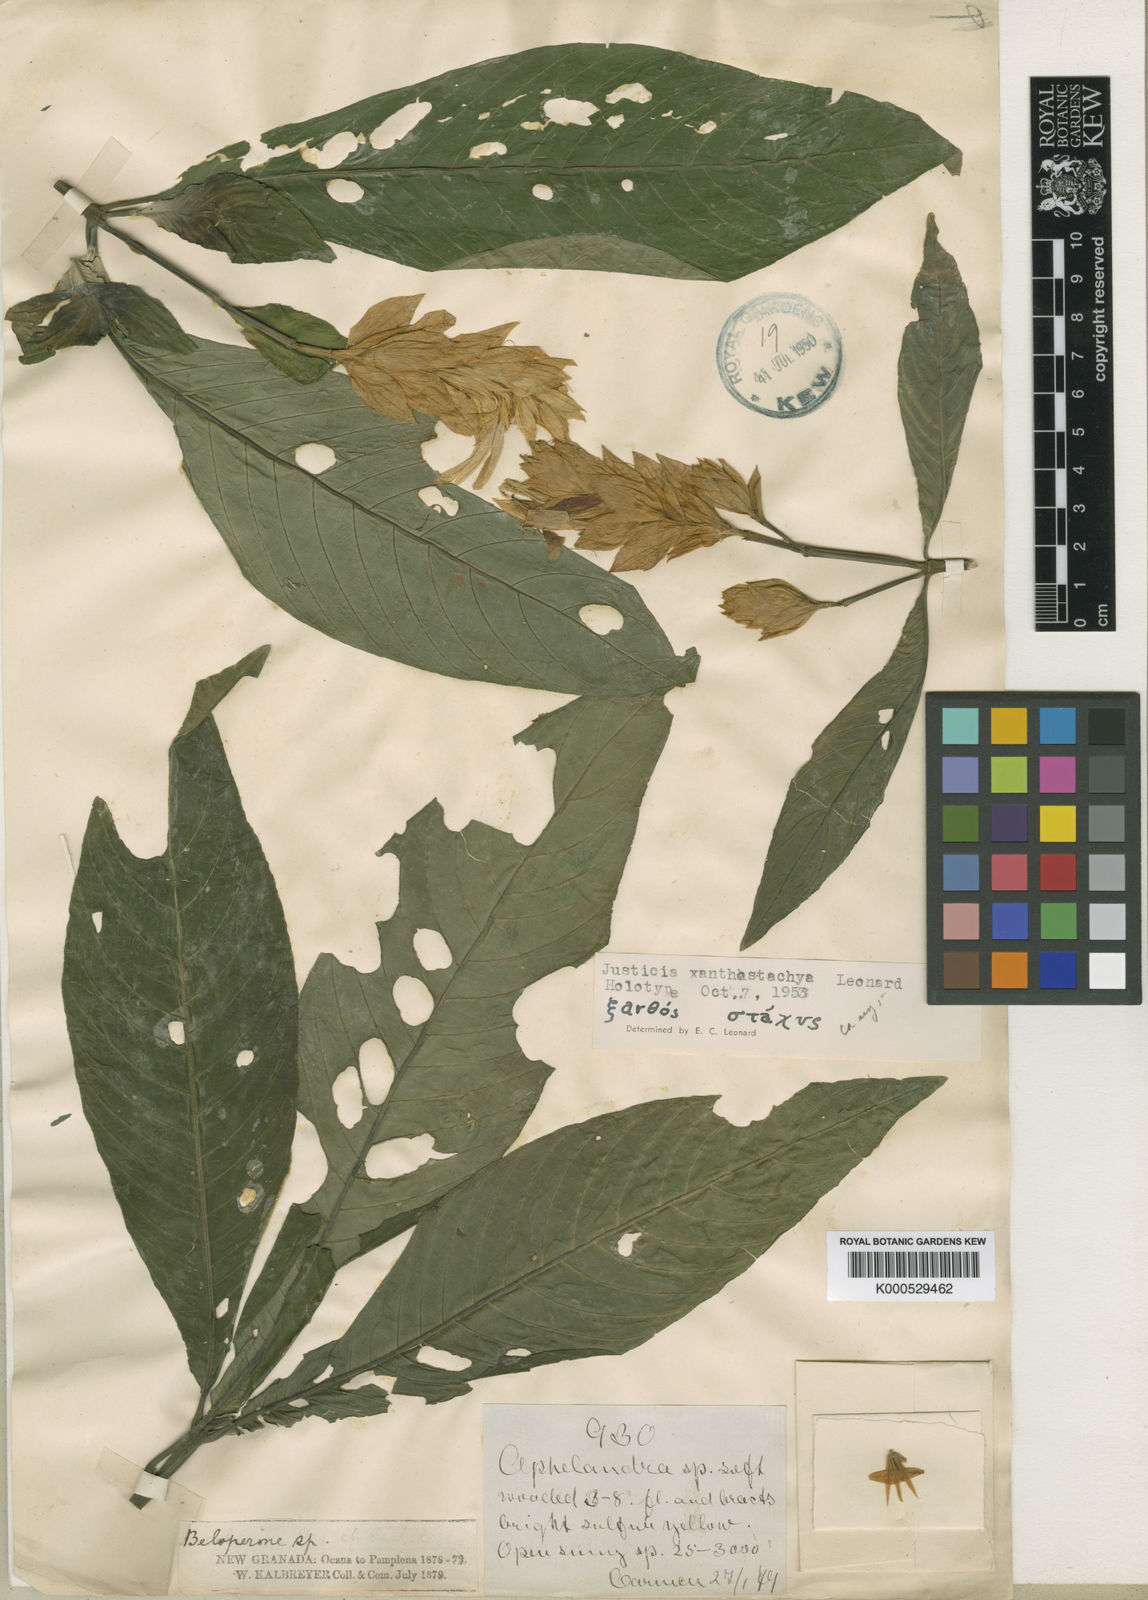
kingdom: Plantae
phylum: Tracheophyta
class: Magnoliopsida
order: Lamiales
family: Acanthaceae
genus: Justicia
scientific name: Justicia xanthostachya
